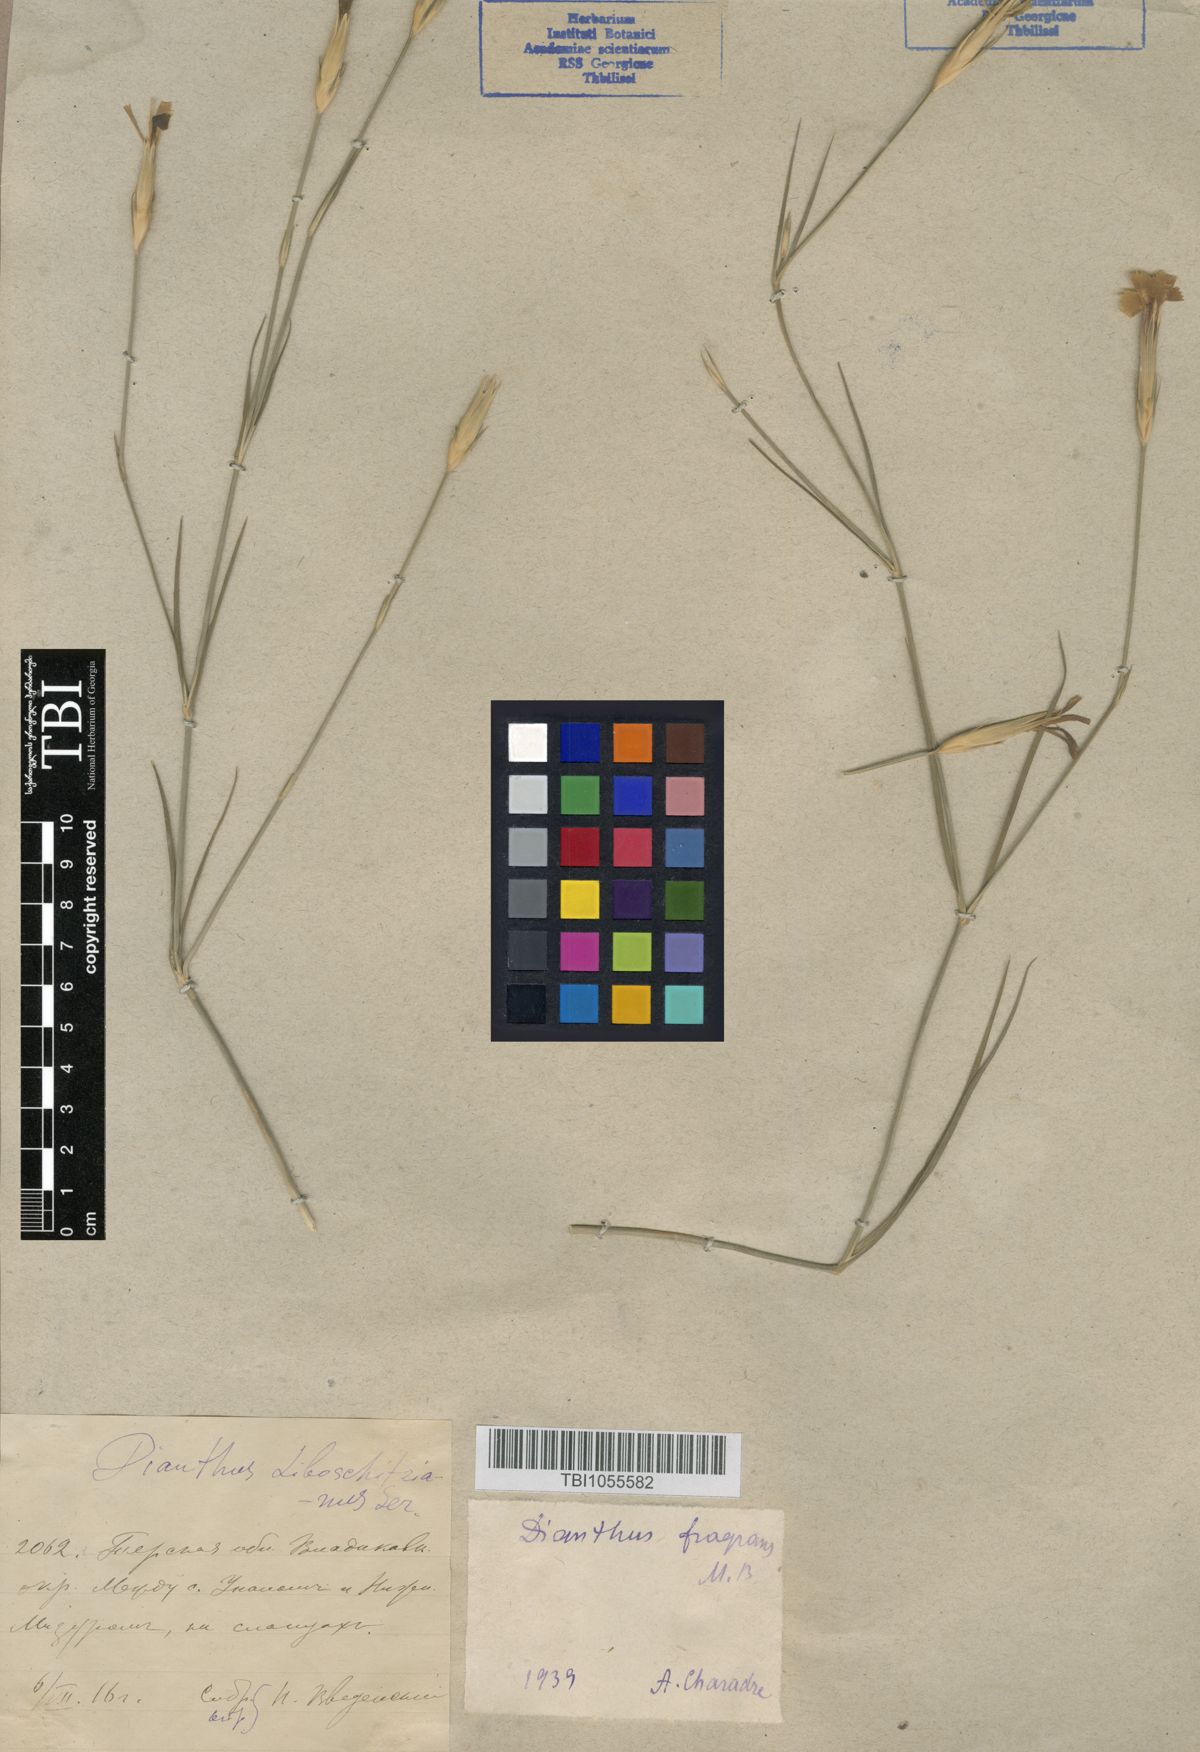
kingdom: Plantae
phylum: Tracheophyta
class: Magnoliopsida
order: Caryophyllales
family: Caryophyllaceae
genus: Dianthus
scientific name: Dianthus
